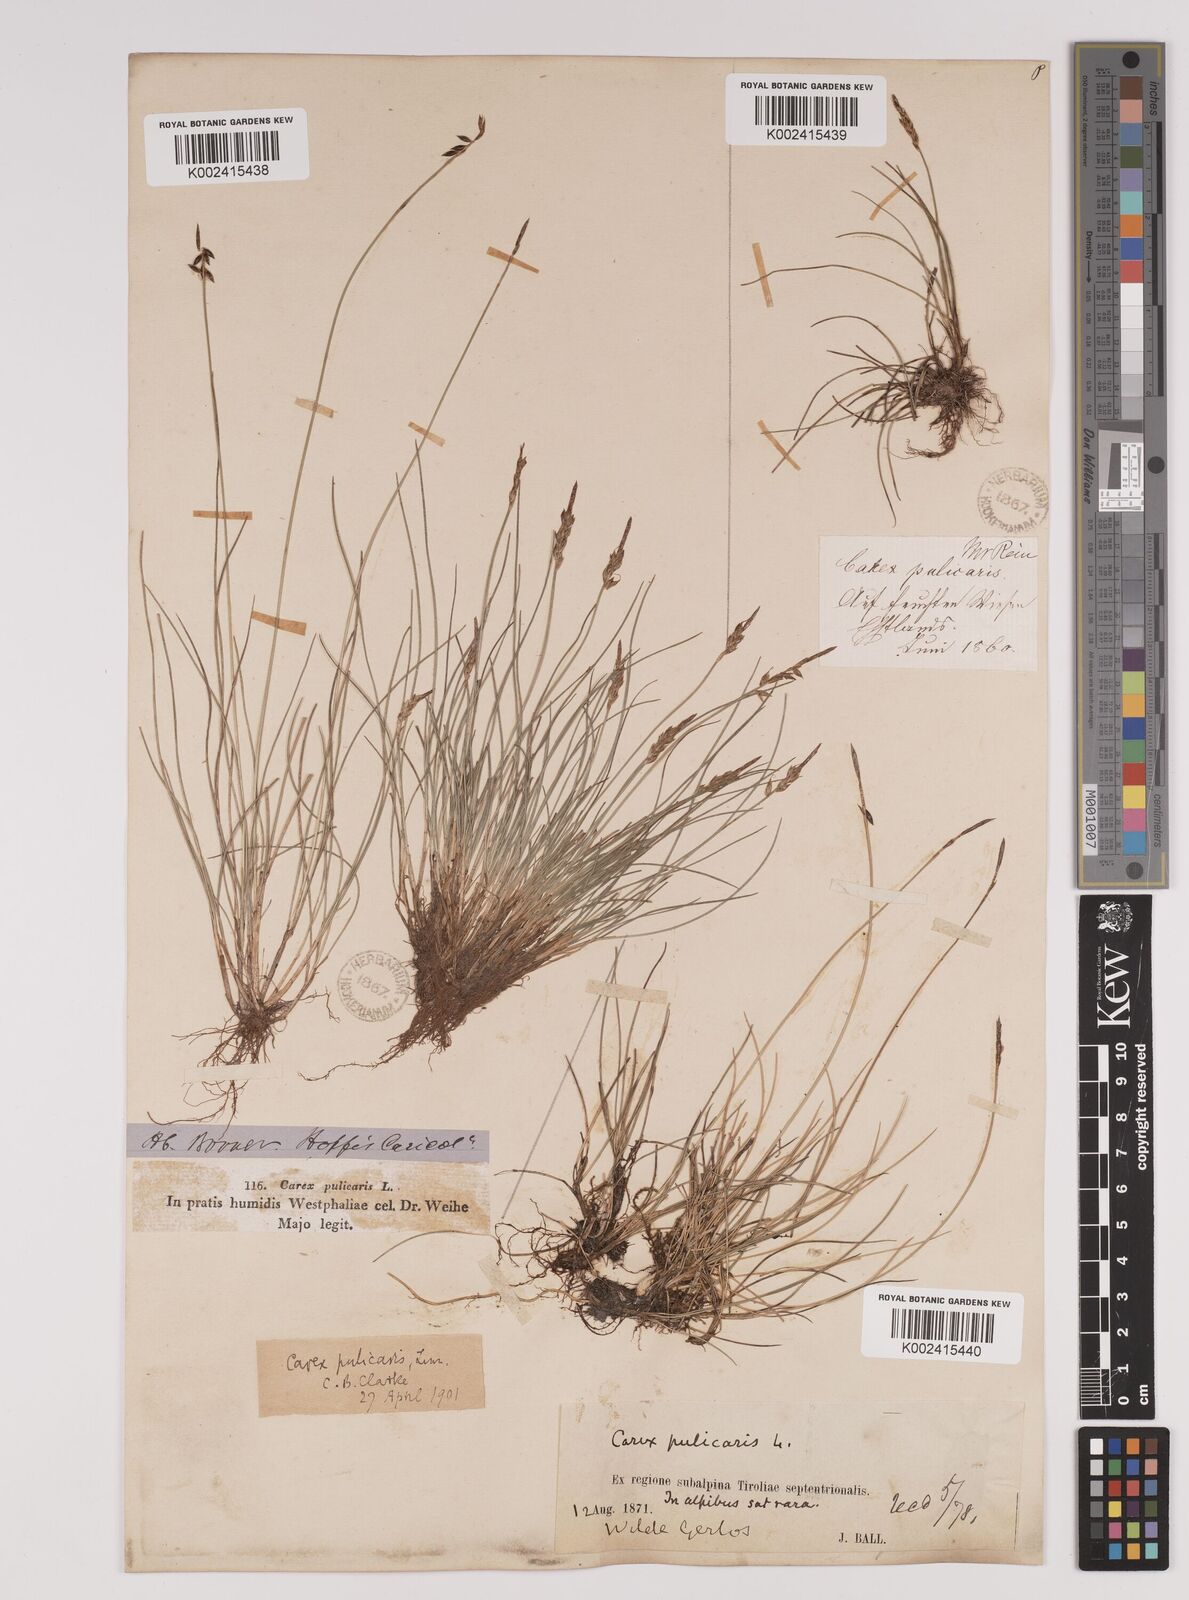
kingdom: Plantae
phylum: Tracheophyta
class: Liliopsida
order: Poales
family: Cyperaceae
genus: Carex
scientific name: Carex pulicaris
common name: Flea sedge
